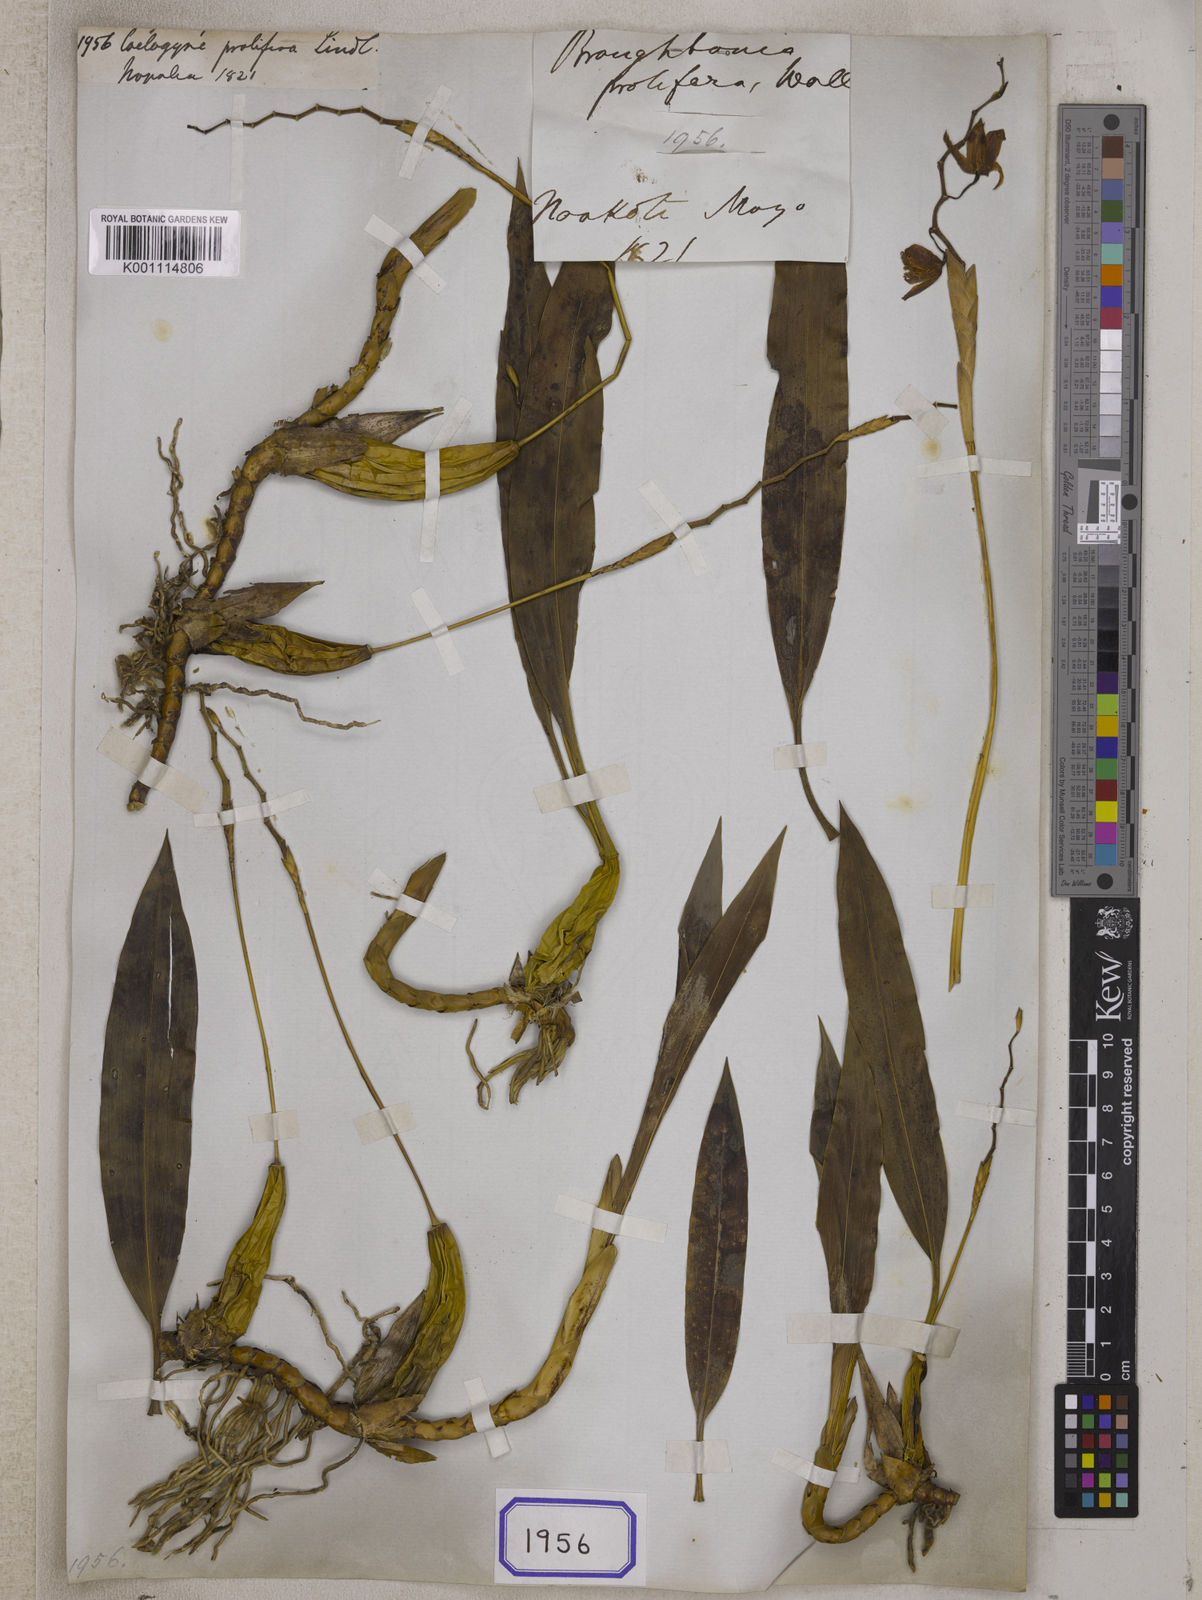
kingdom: Plantae
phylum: Tracheophyta
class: Liliopsida
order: Asparagales
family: Orchidaceae
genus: Coelogyne
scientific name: Coelogyne prolifera
